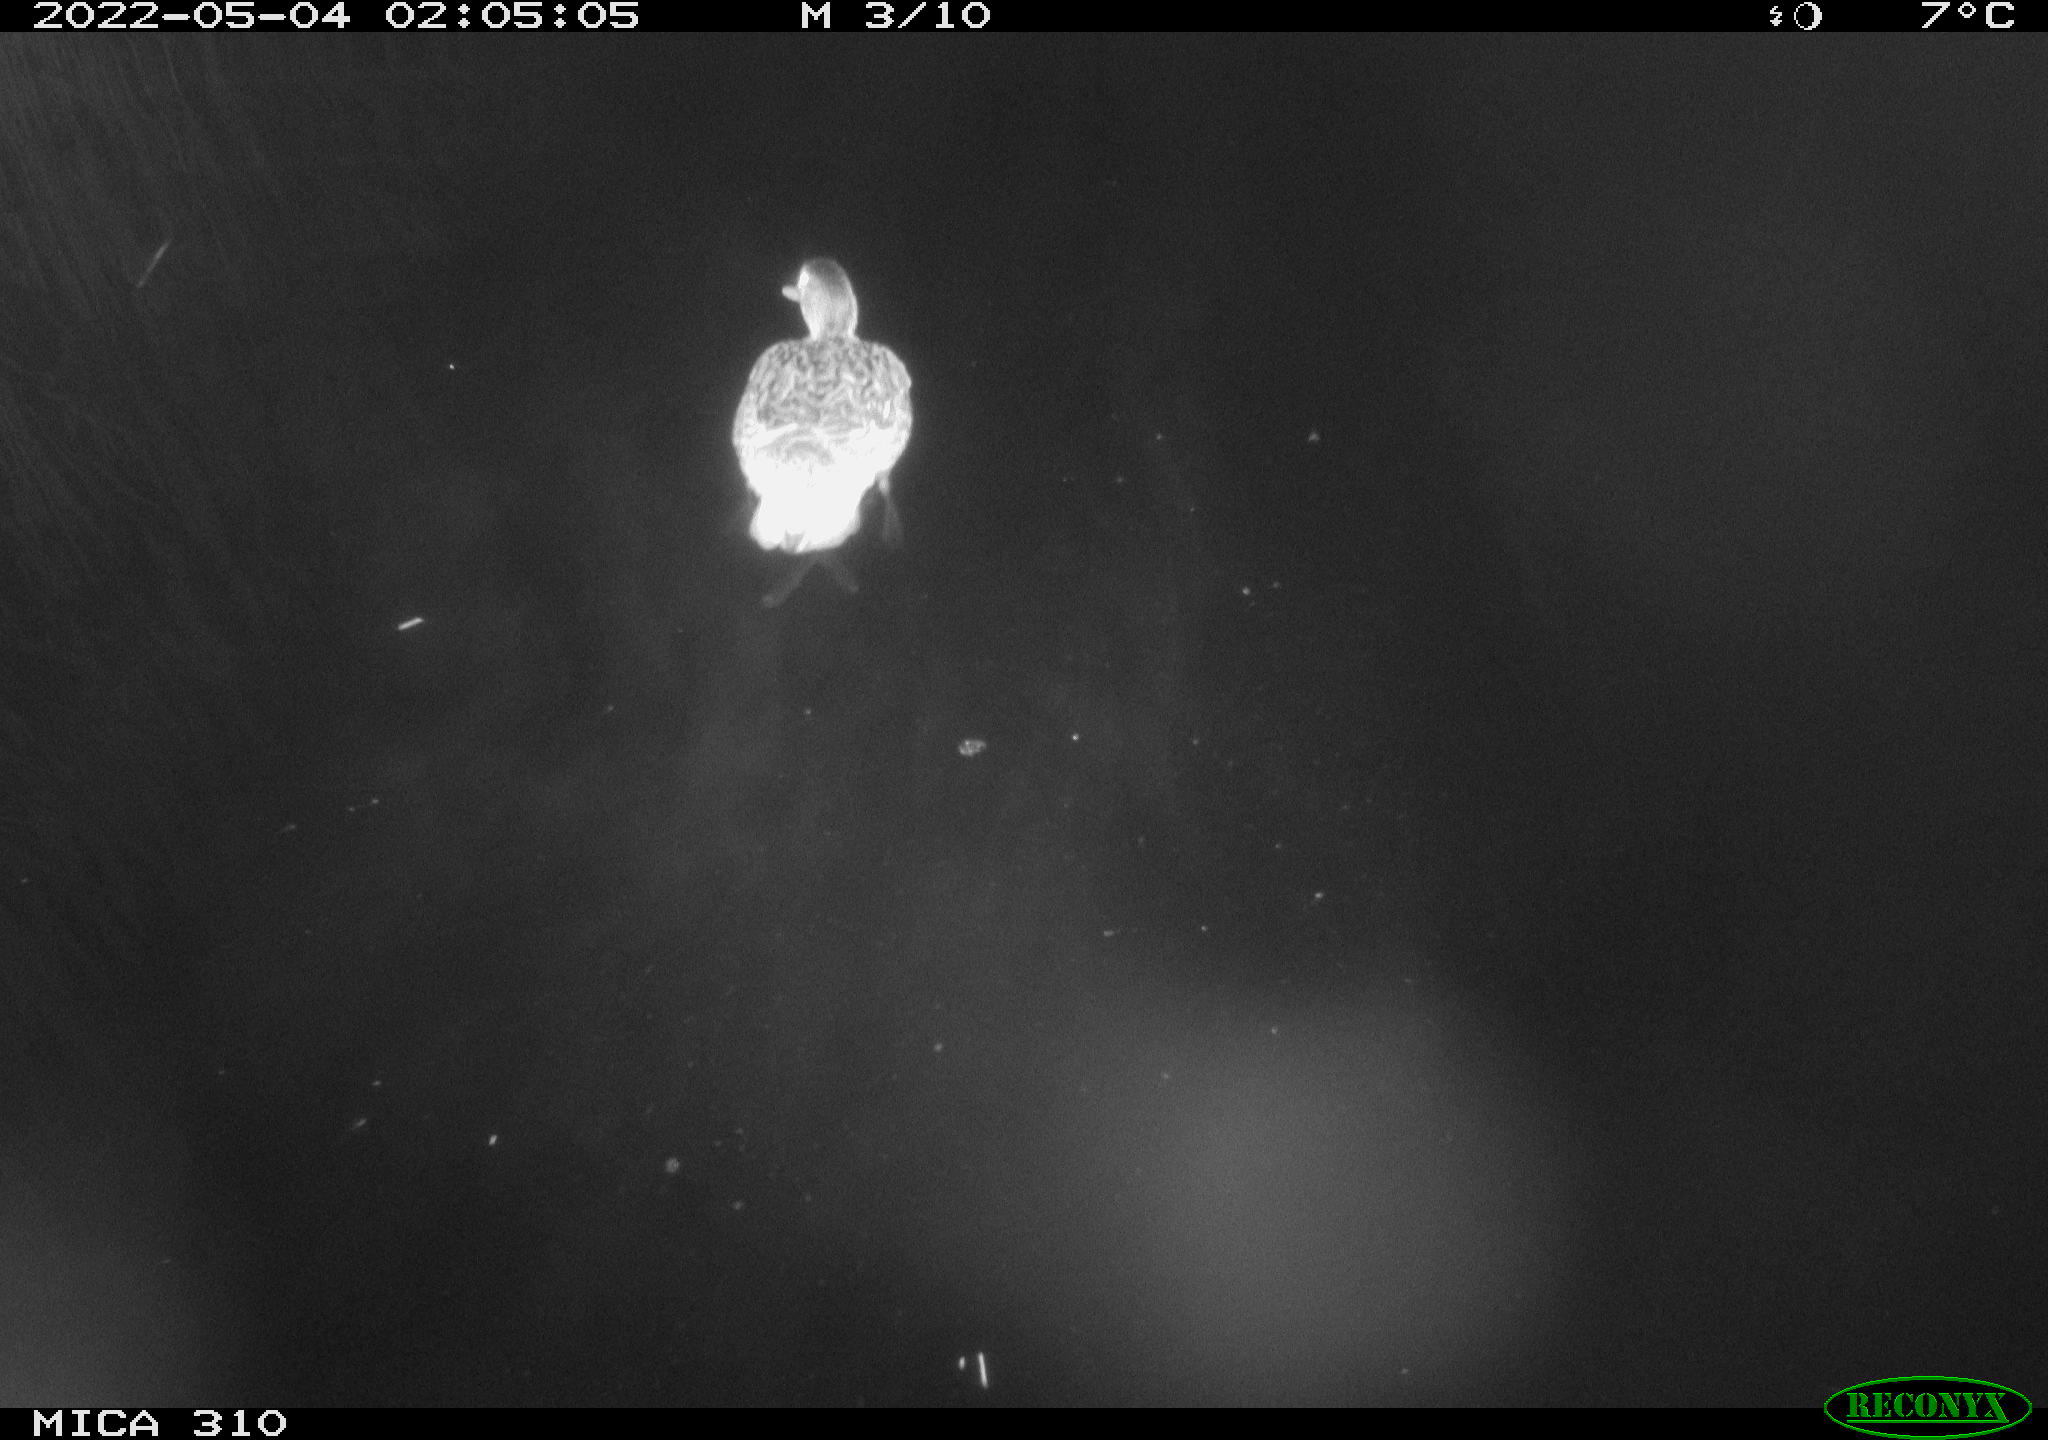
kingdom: Animalia
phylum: Chordata
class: Aves
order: Anseriformes
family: Anatidae
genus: Anas
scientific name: Anas platyrhynchos
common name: Mallard
